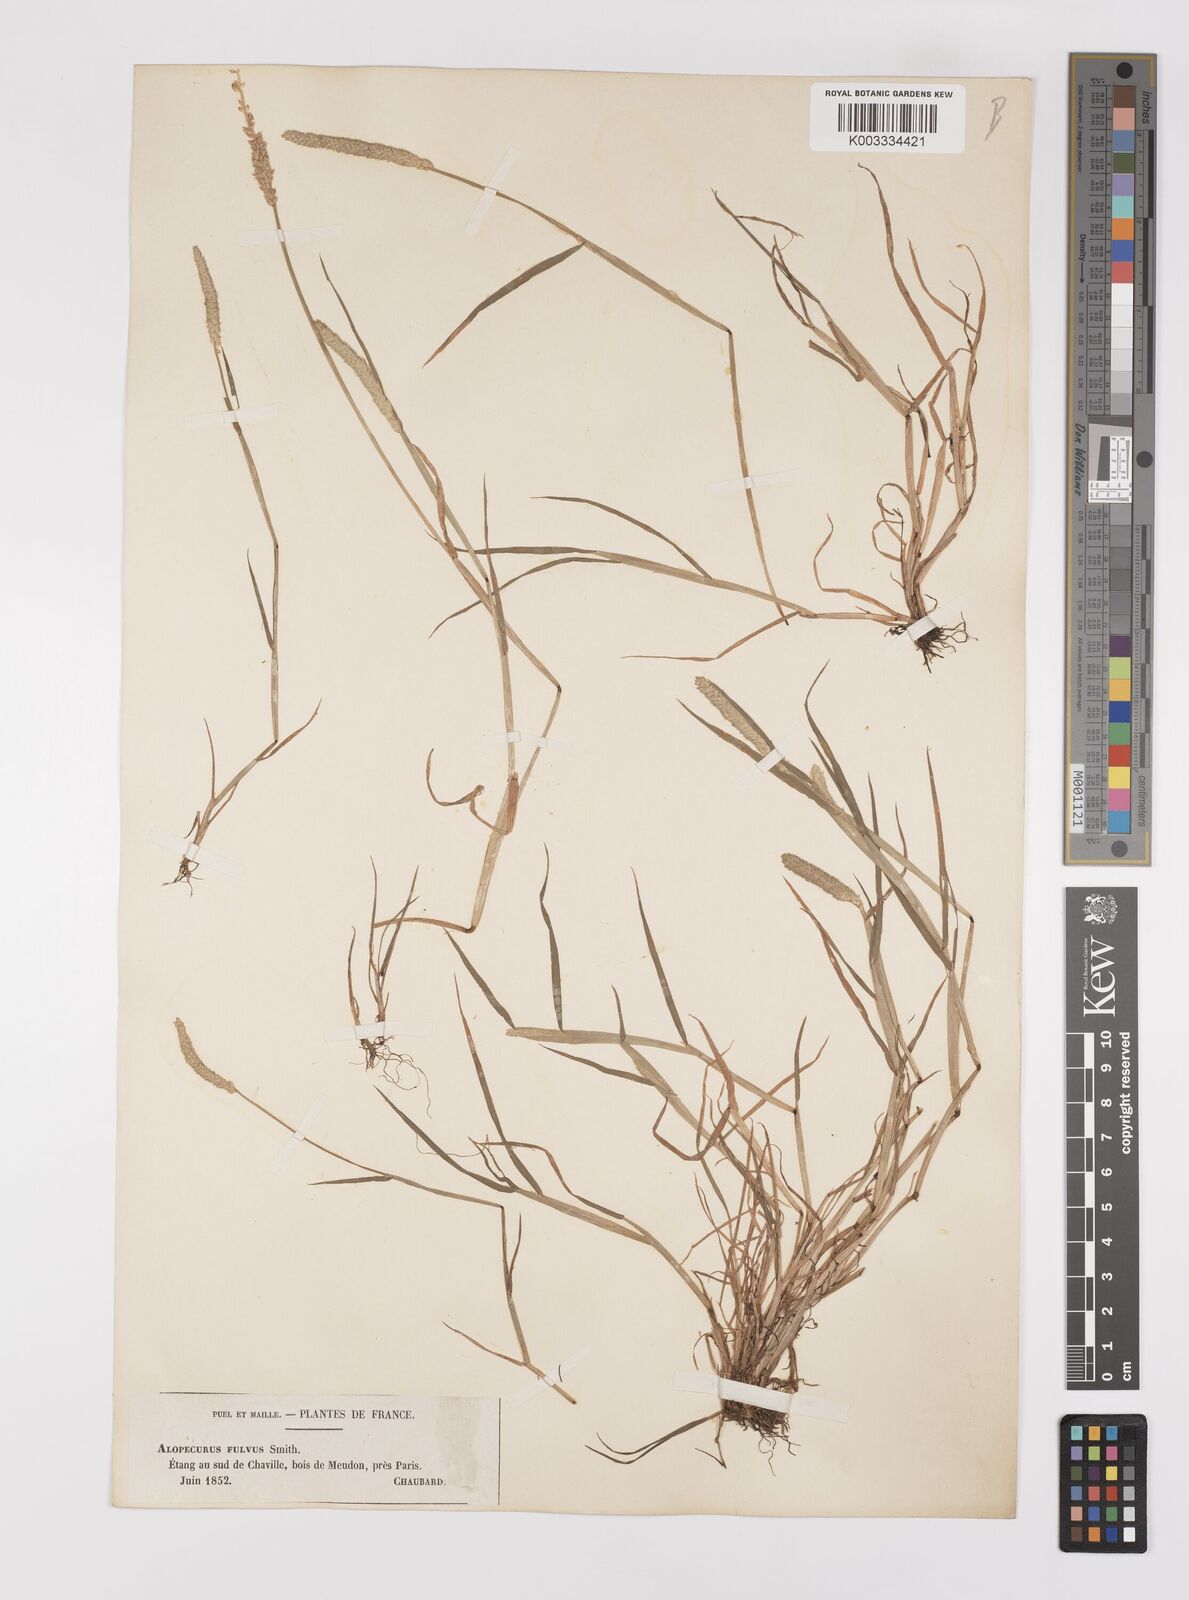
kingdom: Plantae
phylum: Tracheophyta
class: Liliopsida
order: Poales
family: Poaceae
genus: Alopecurus
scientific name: Alopecurus aequalis
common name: Orange foxtail
